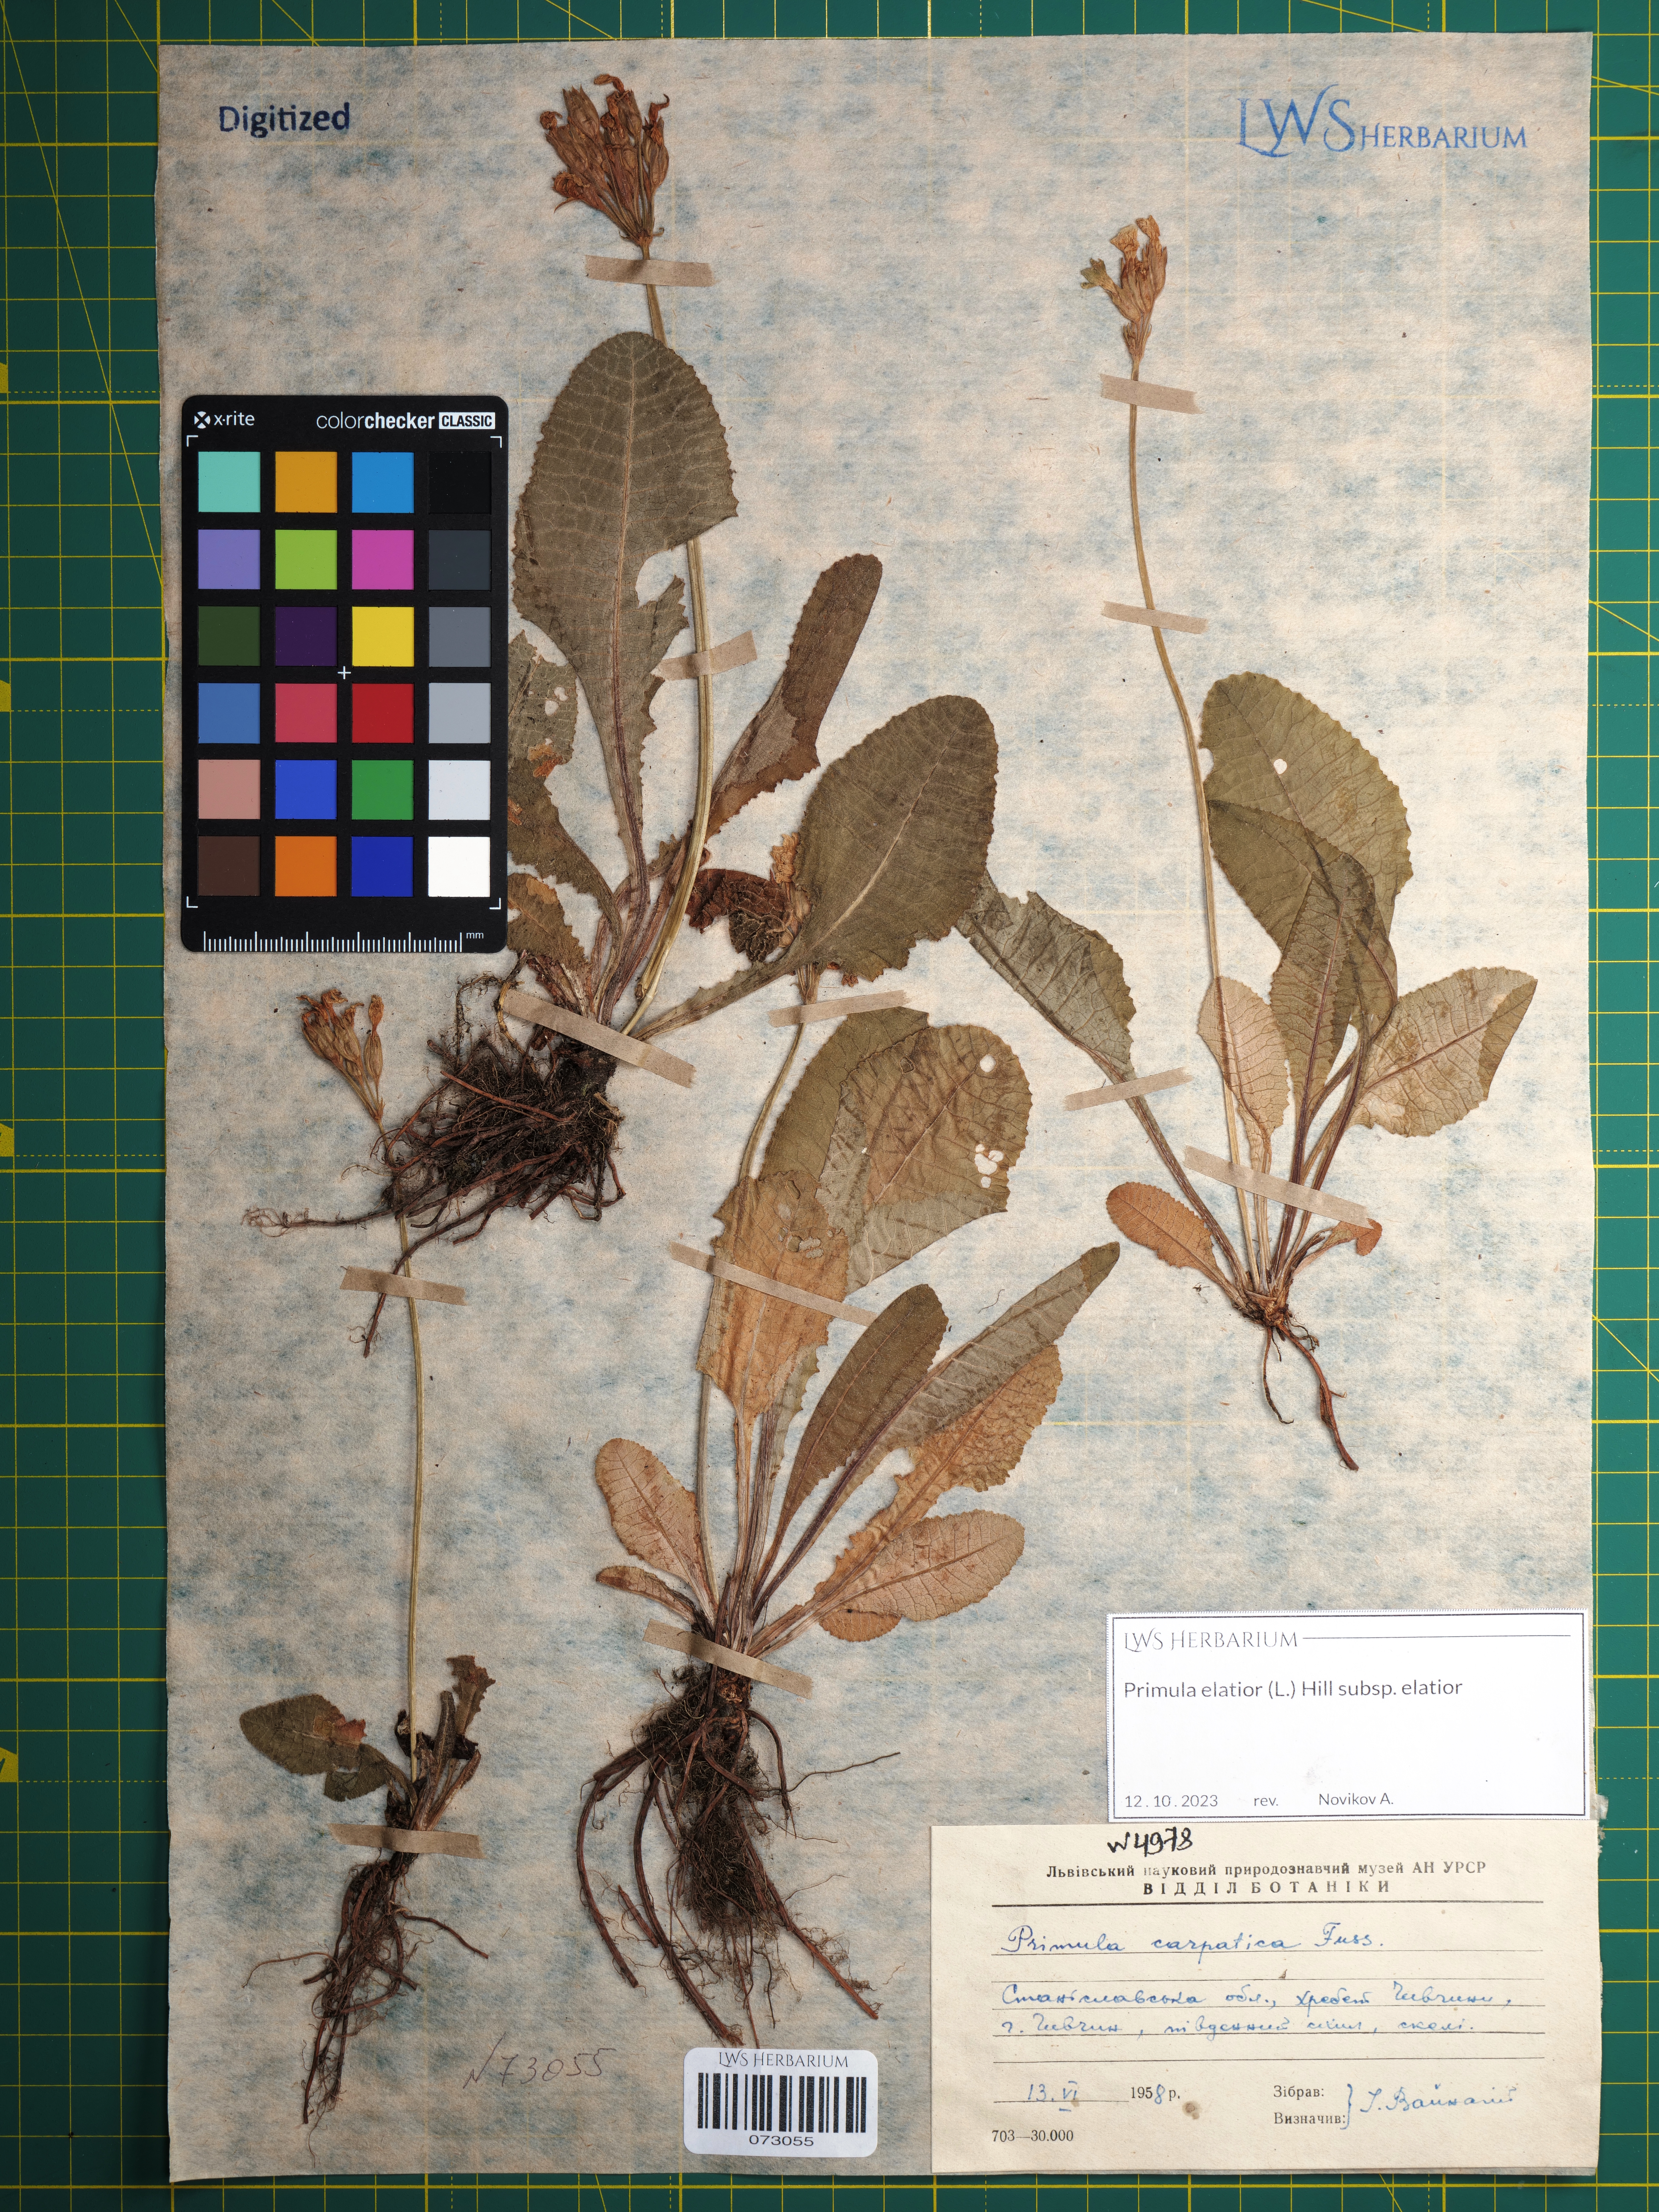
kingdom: Plantae
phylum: Tracheophyta
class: Magnoliopsida
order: Ericales
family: Primulaceae
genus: Primula
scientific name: Primula elatior
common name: Oxlip
